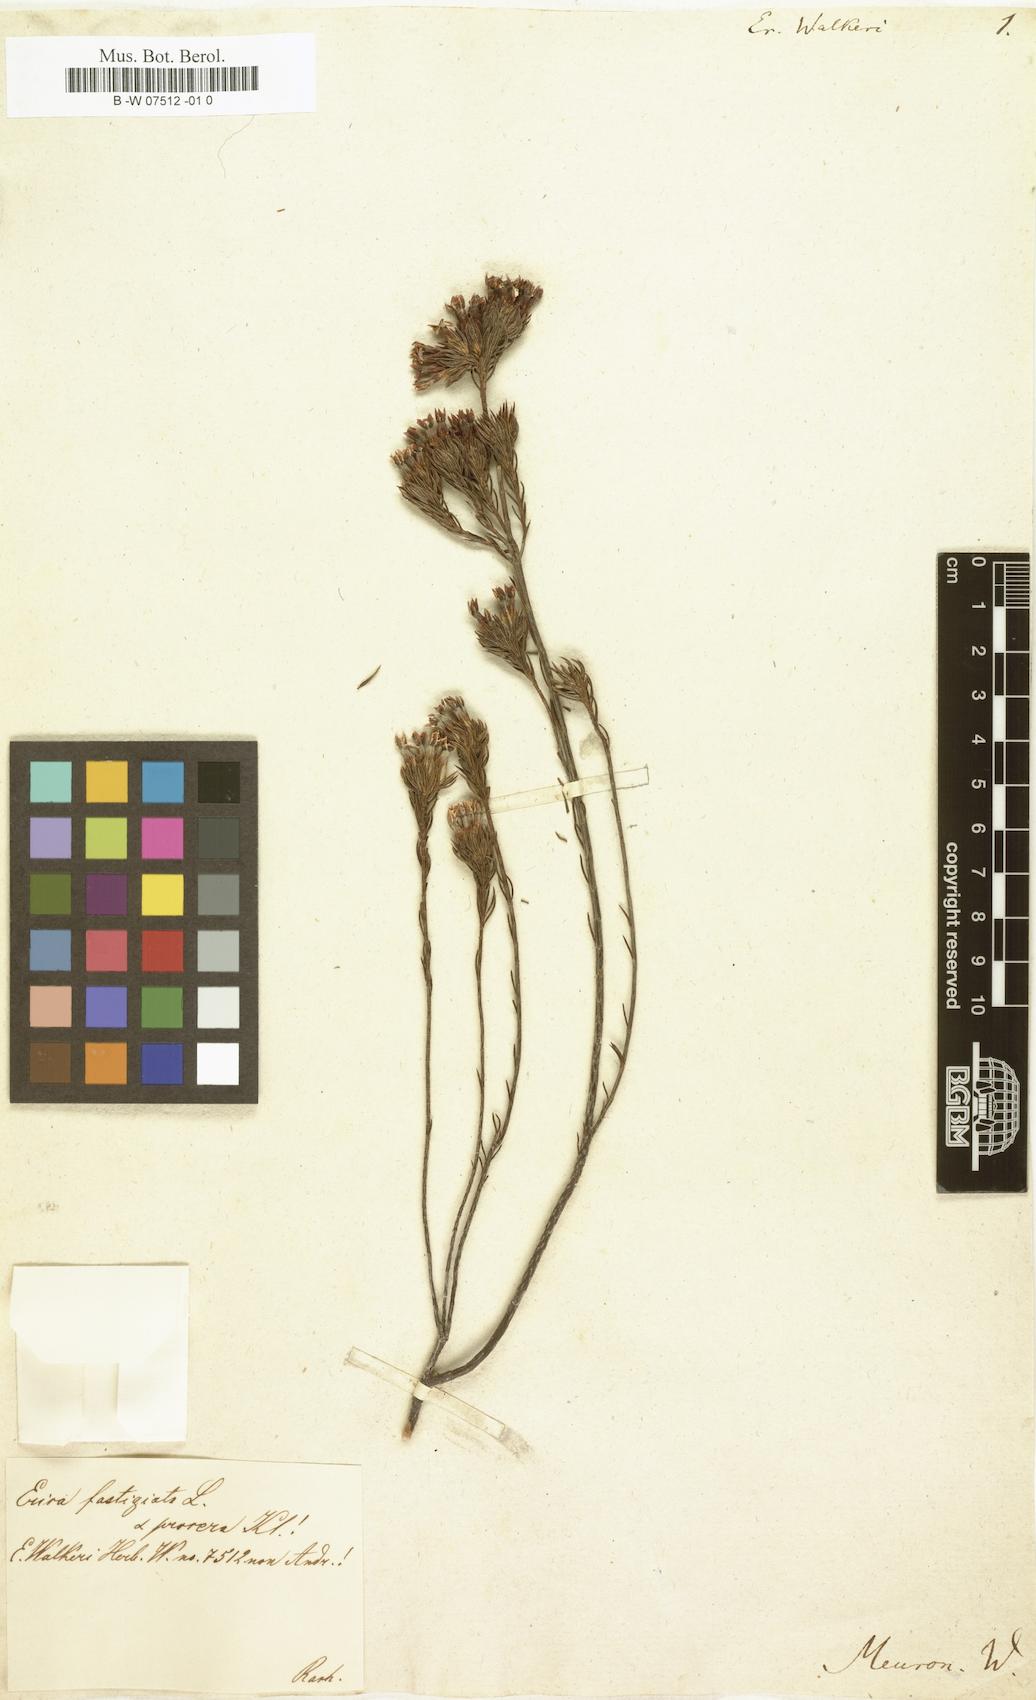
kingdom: Plantae
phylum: Tracheophyta
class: Magnoliopsida
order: Ericales
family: Ericaceae
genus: Erica
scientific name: Erica walkeri
